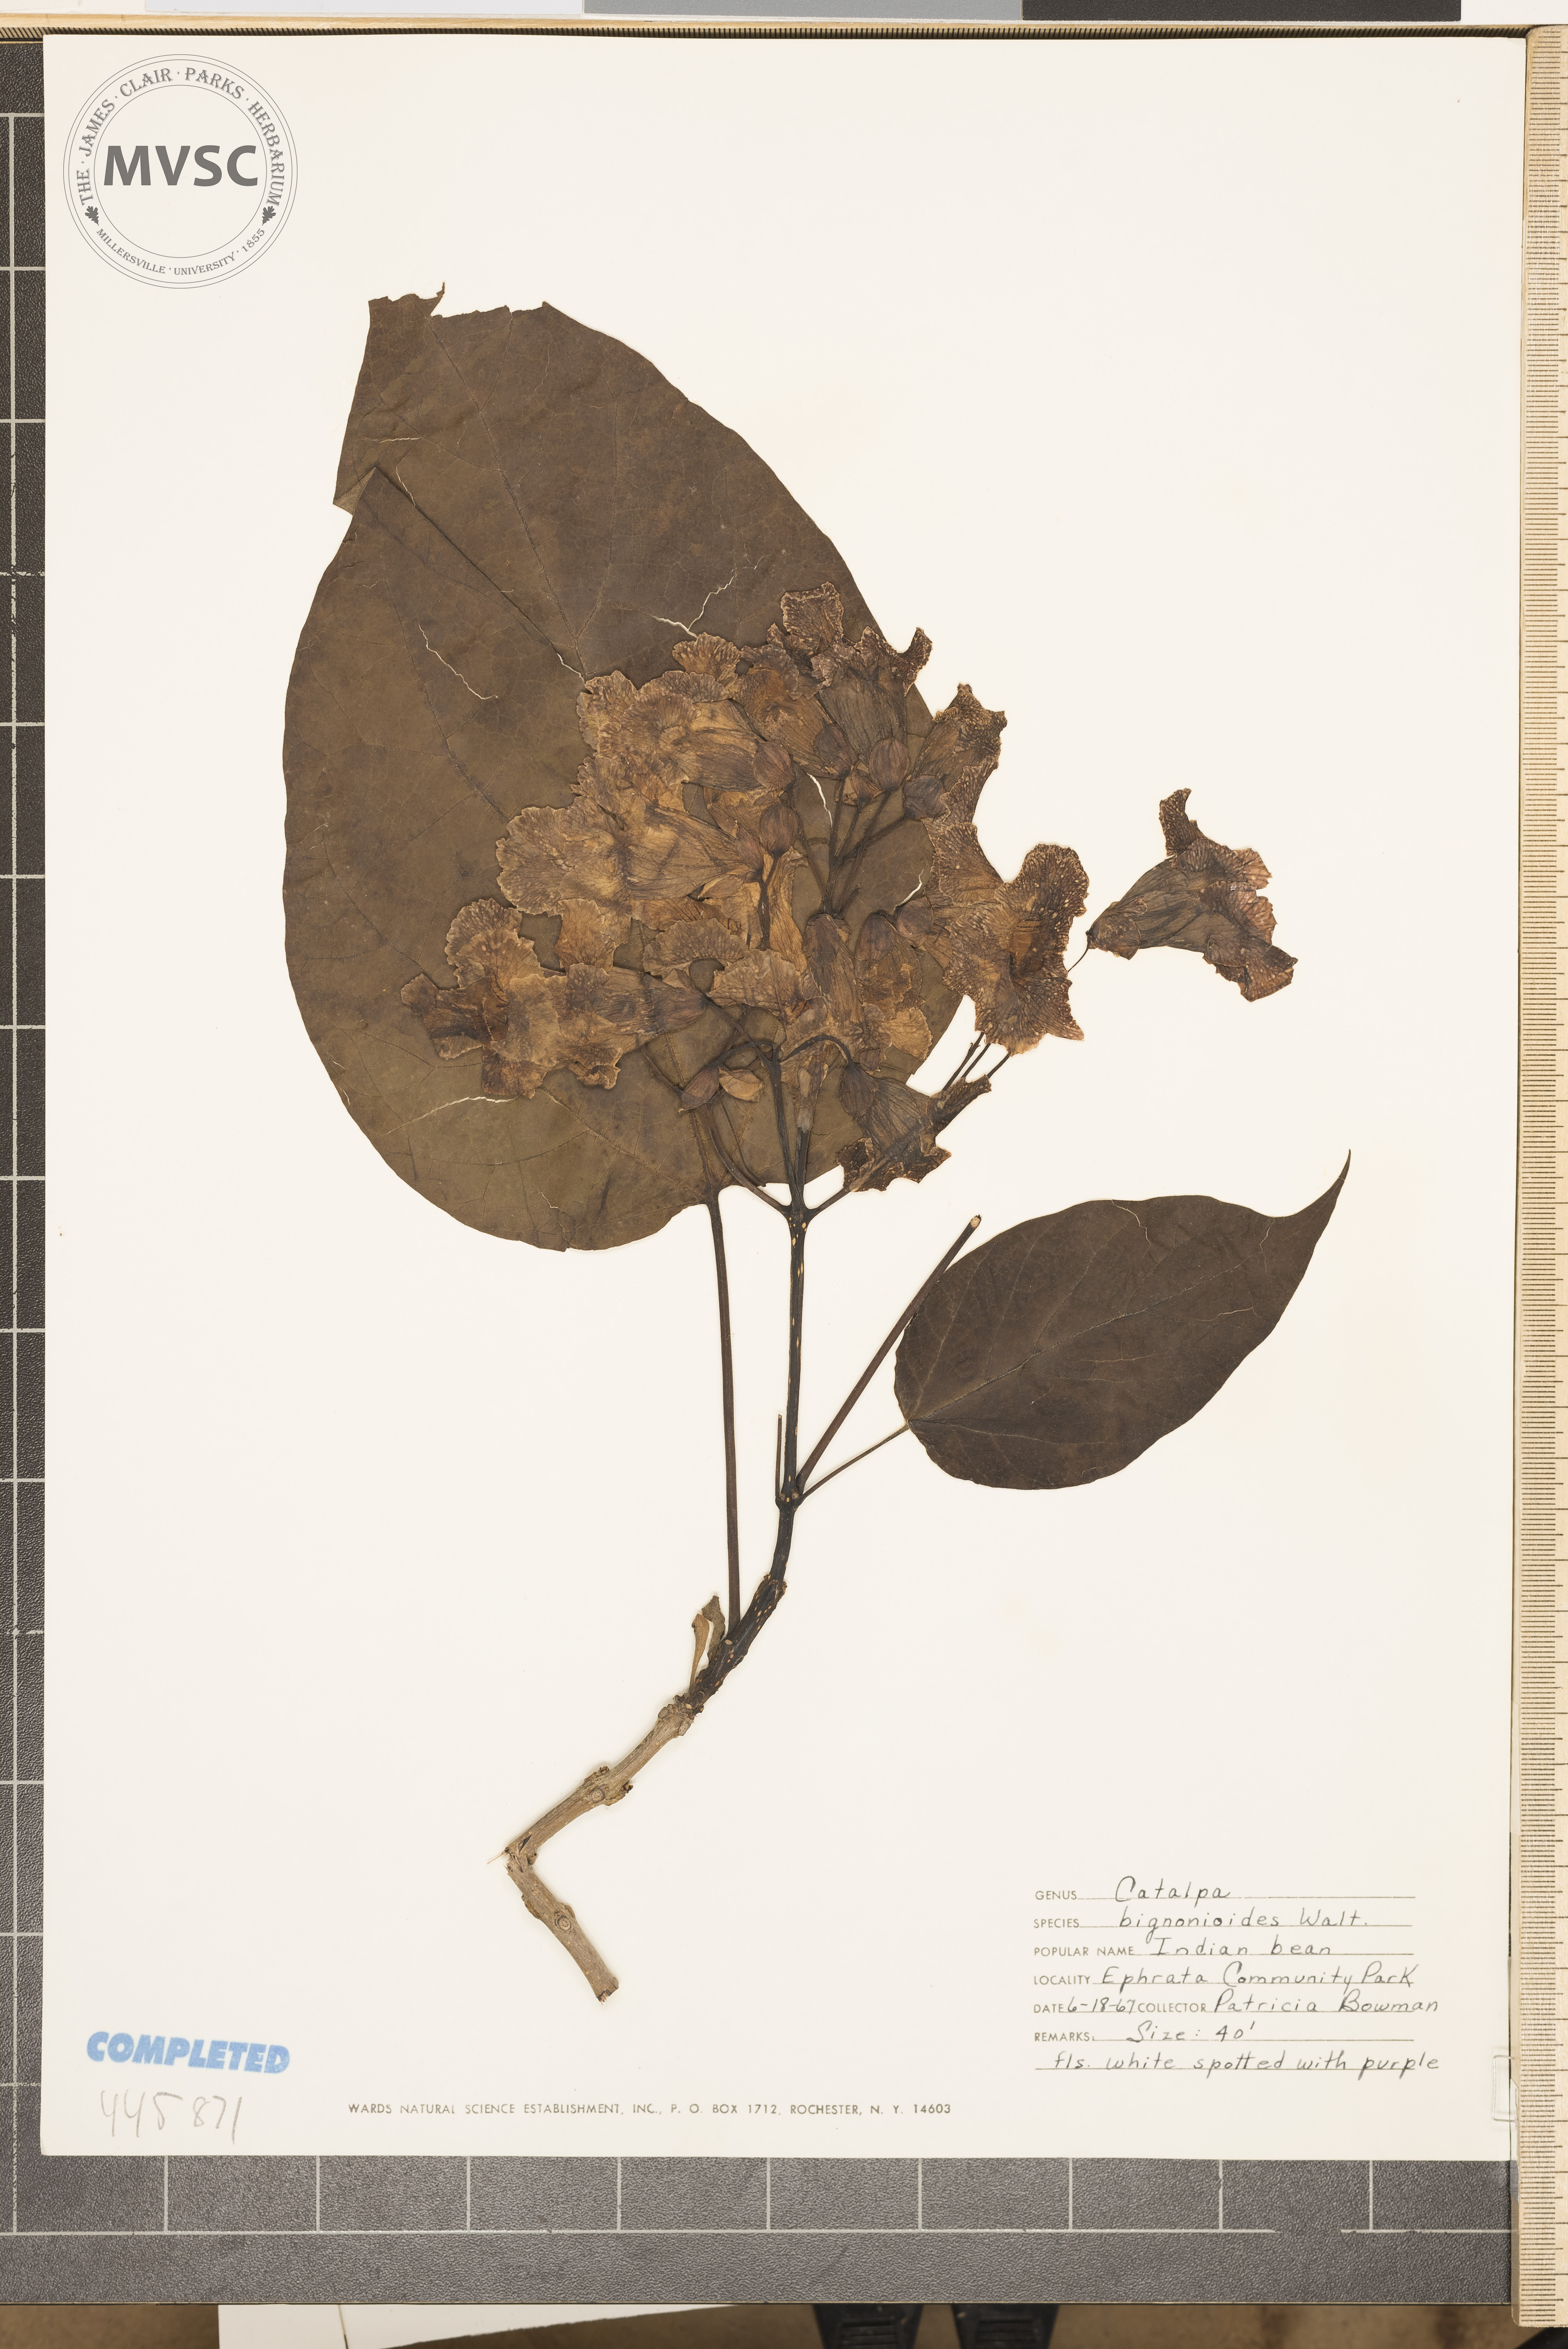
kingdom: Plantae
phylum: Tracheophyta
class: Magnoliopsida
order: Lamiales
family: Bignoniaceae
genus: Catalpa
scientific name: Catalpa bignonioides
